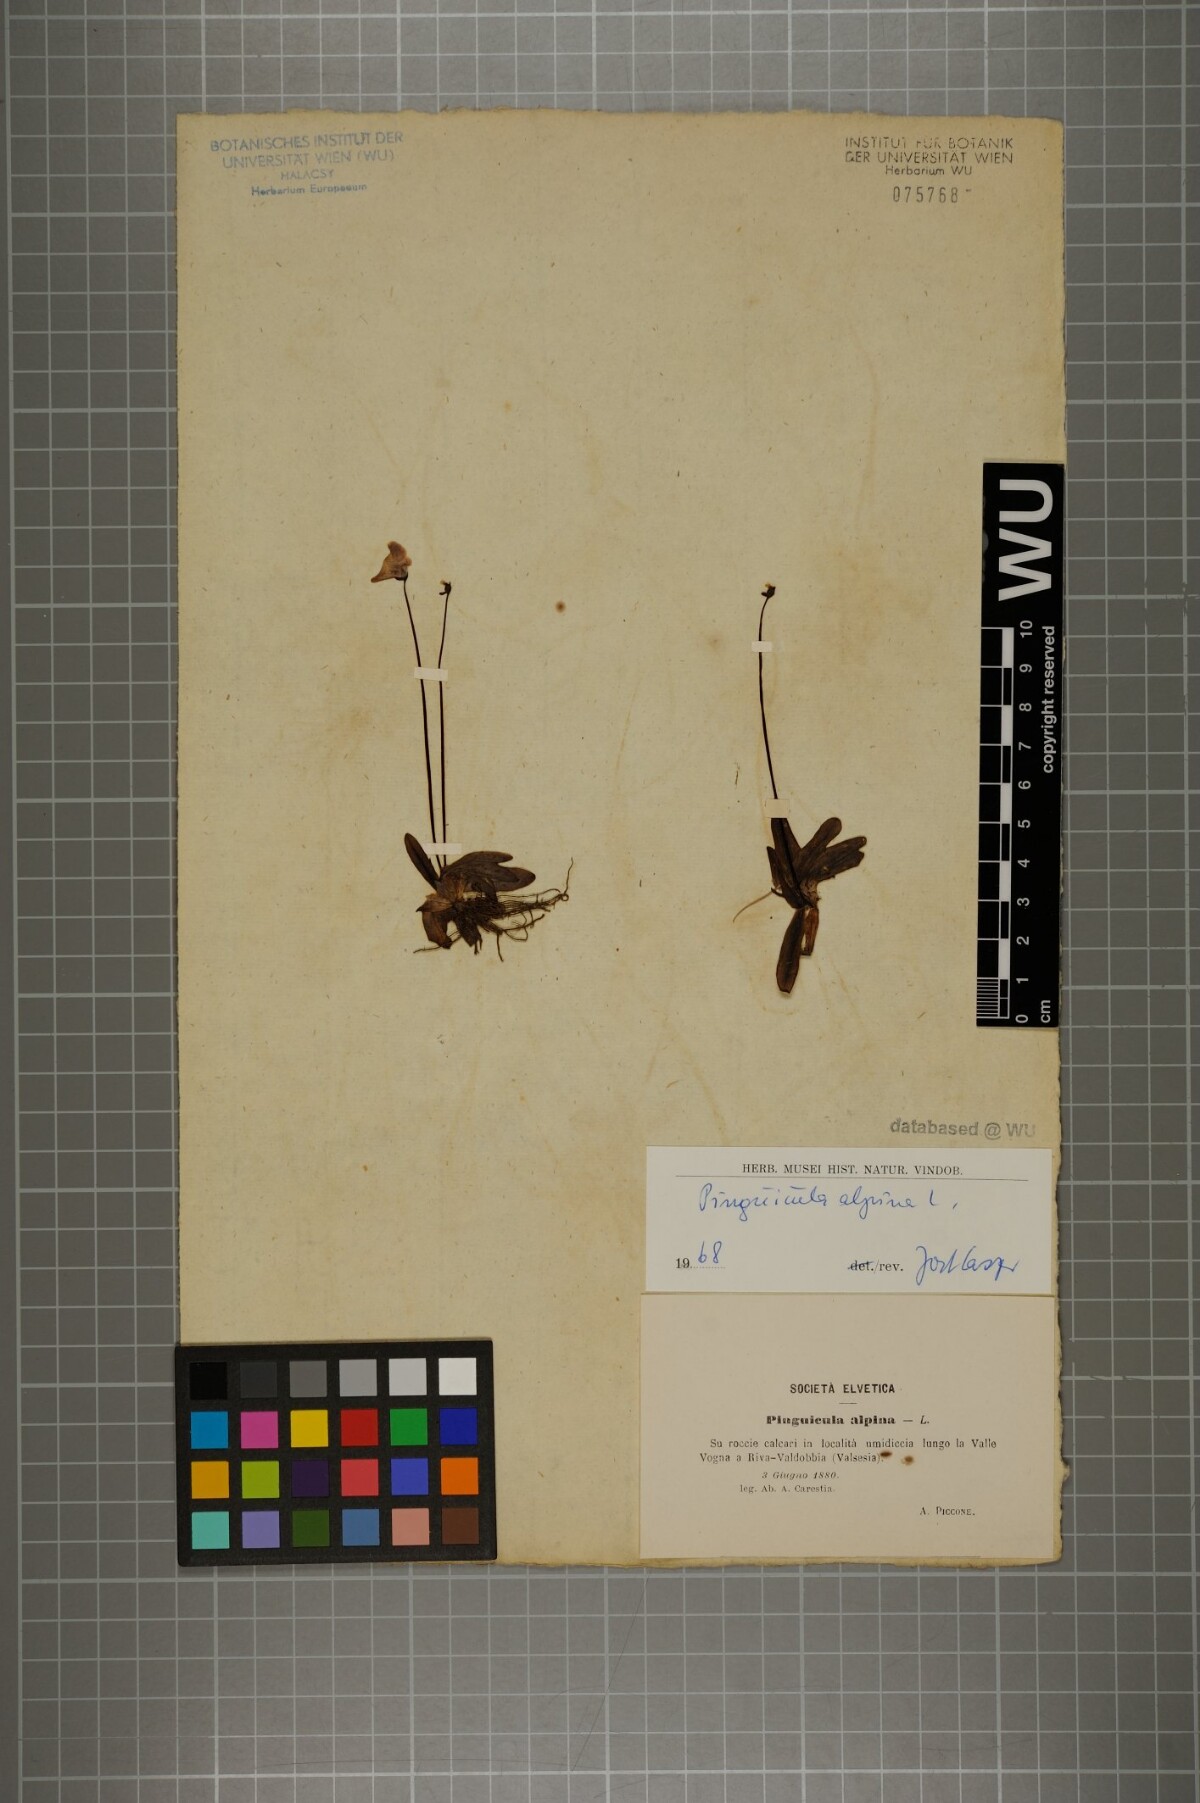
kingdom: Plantae
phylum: Tracheophyta
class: Magnoliopsida
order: Lamiales
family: Lentibulariaceae
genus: Pinguicula
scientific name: Pinguicula alpina
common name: Alpine butterwort
